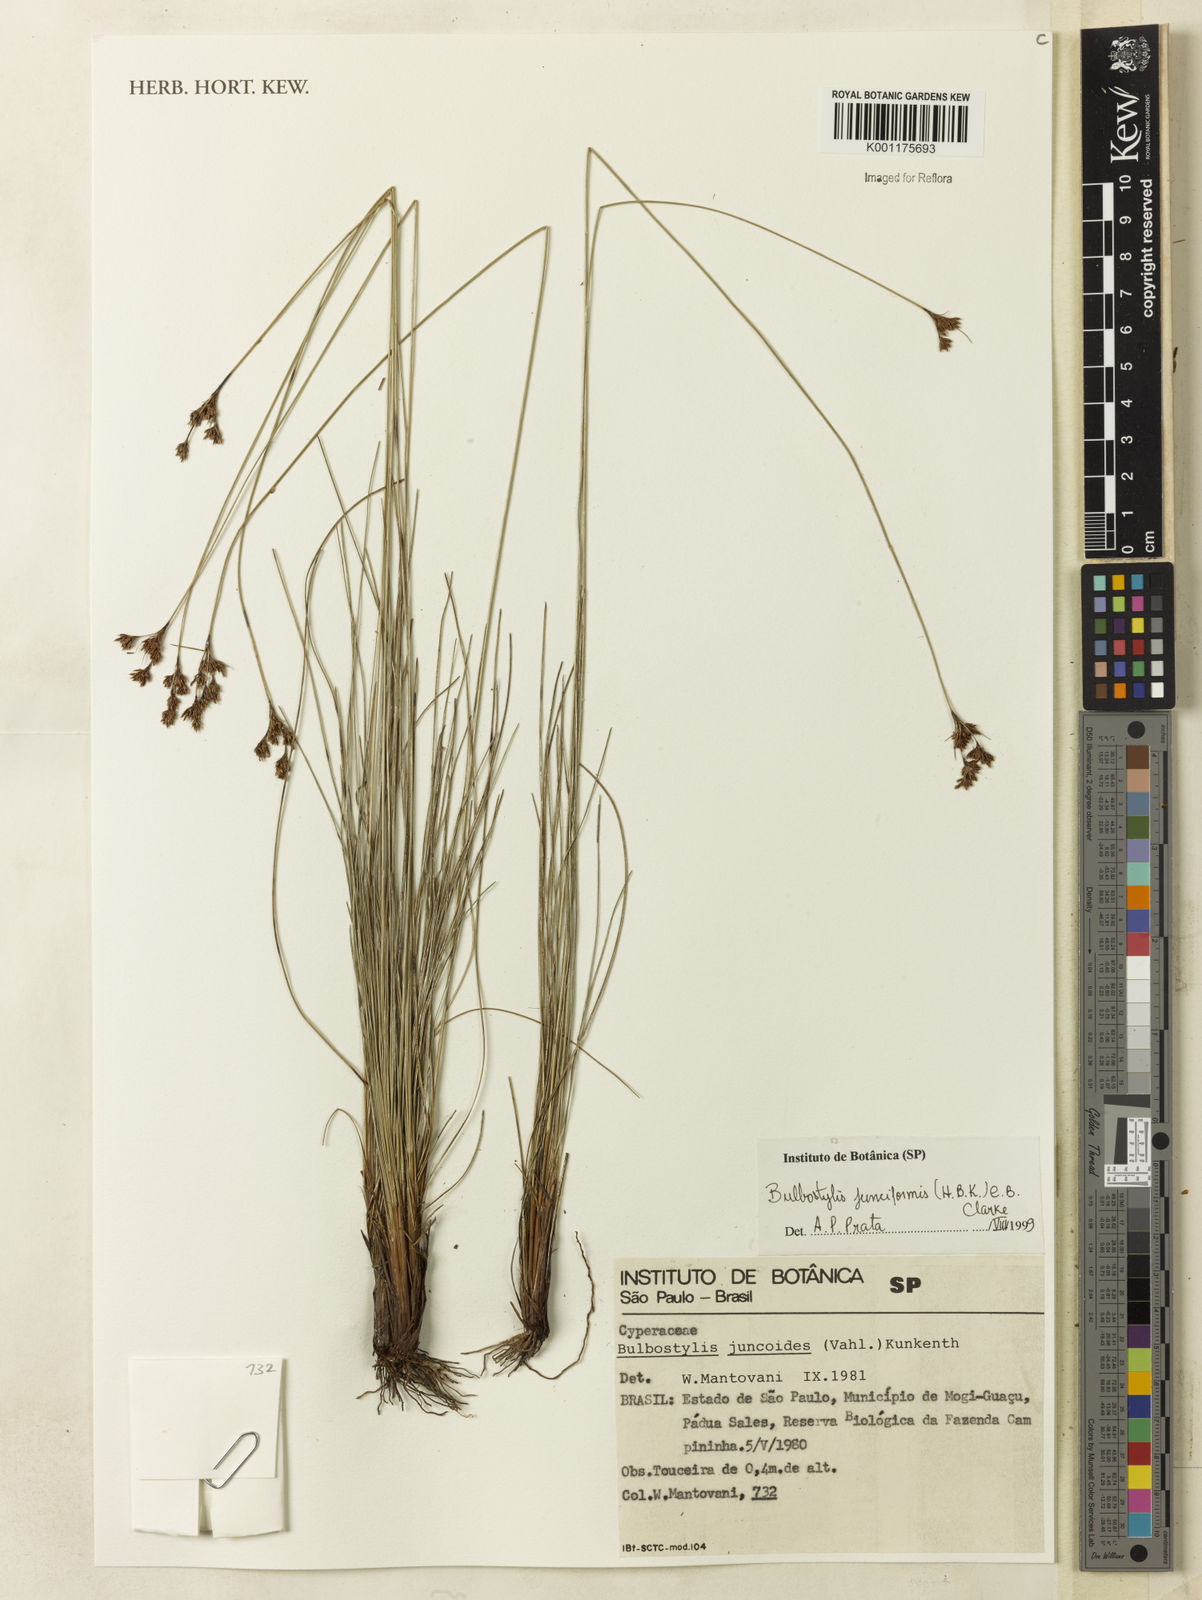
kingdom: Plantae
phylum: Tracheophyta
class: Liliopsida
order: Poales
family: Cyperaceae
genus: Bulbostylis
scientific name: Bulbostylis junciformis
